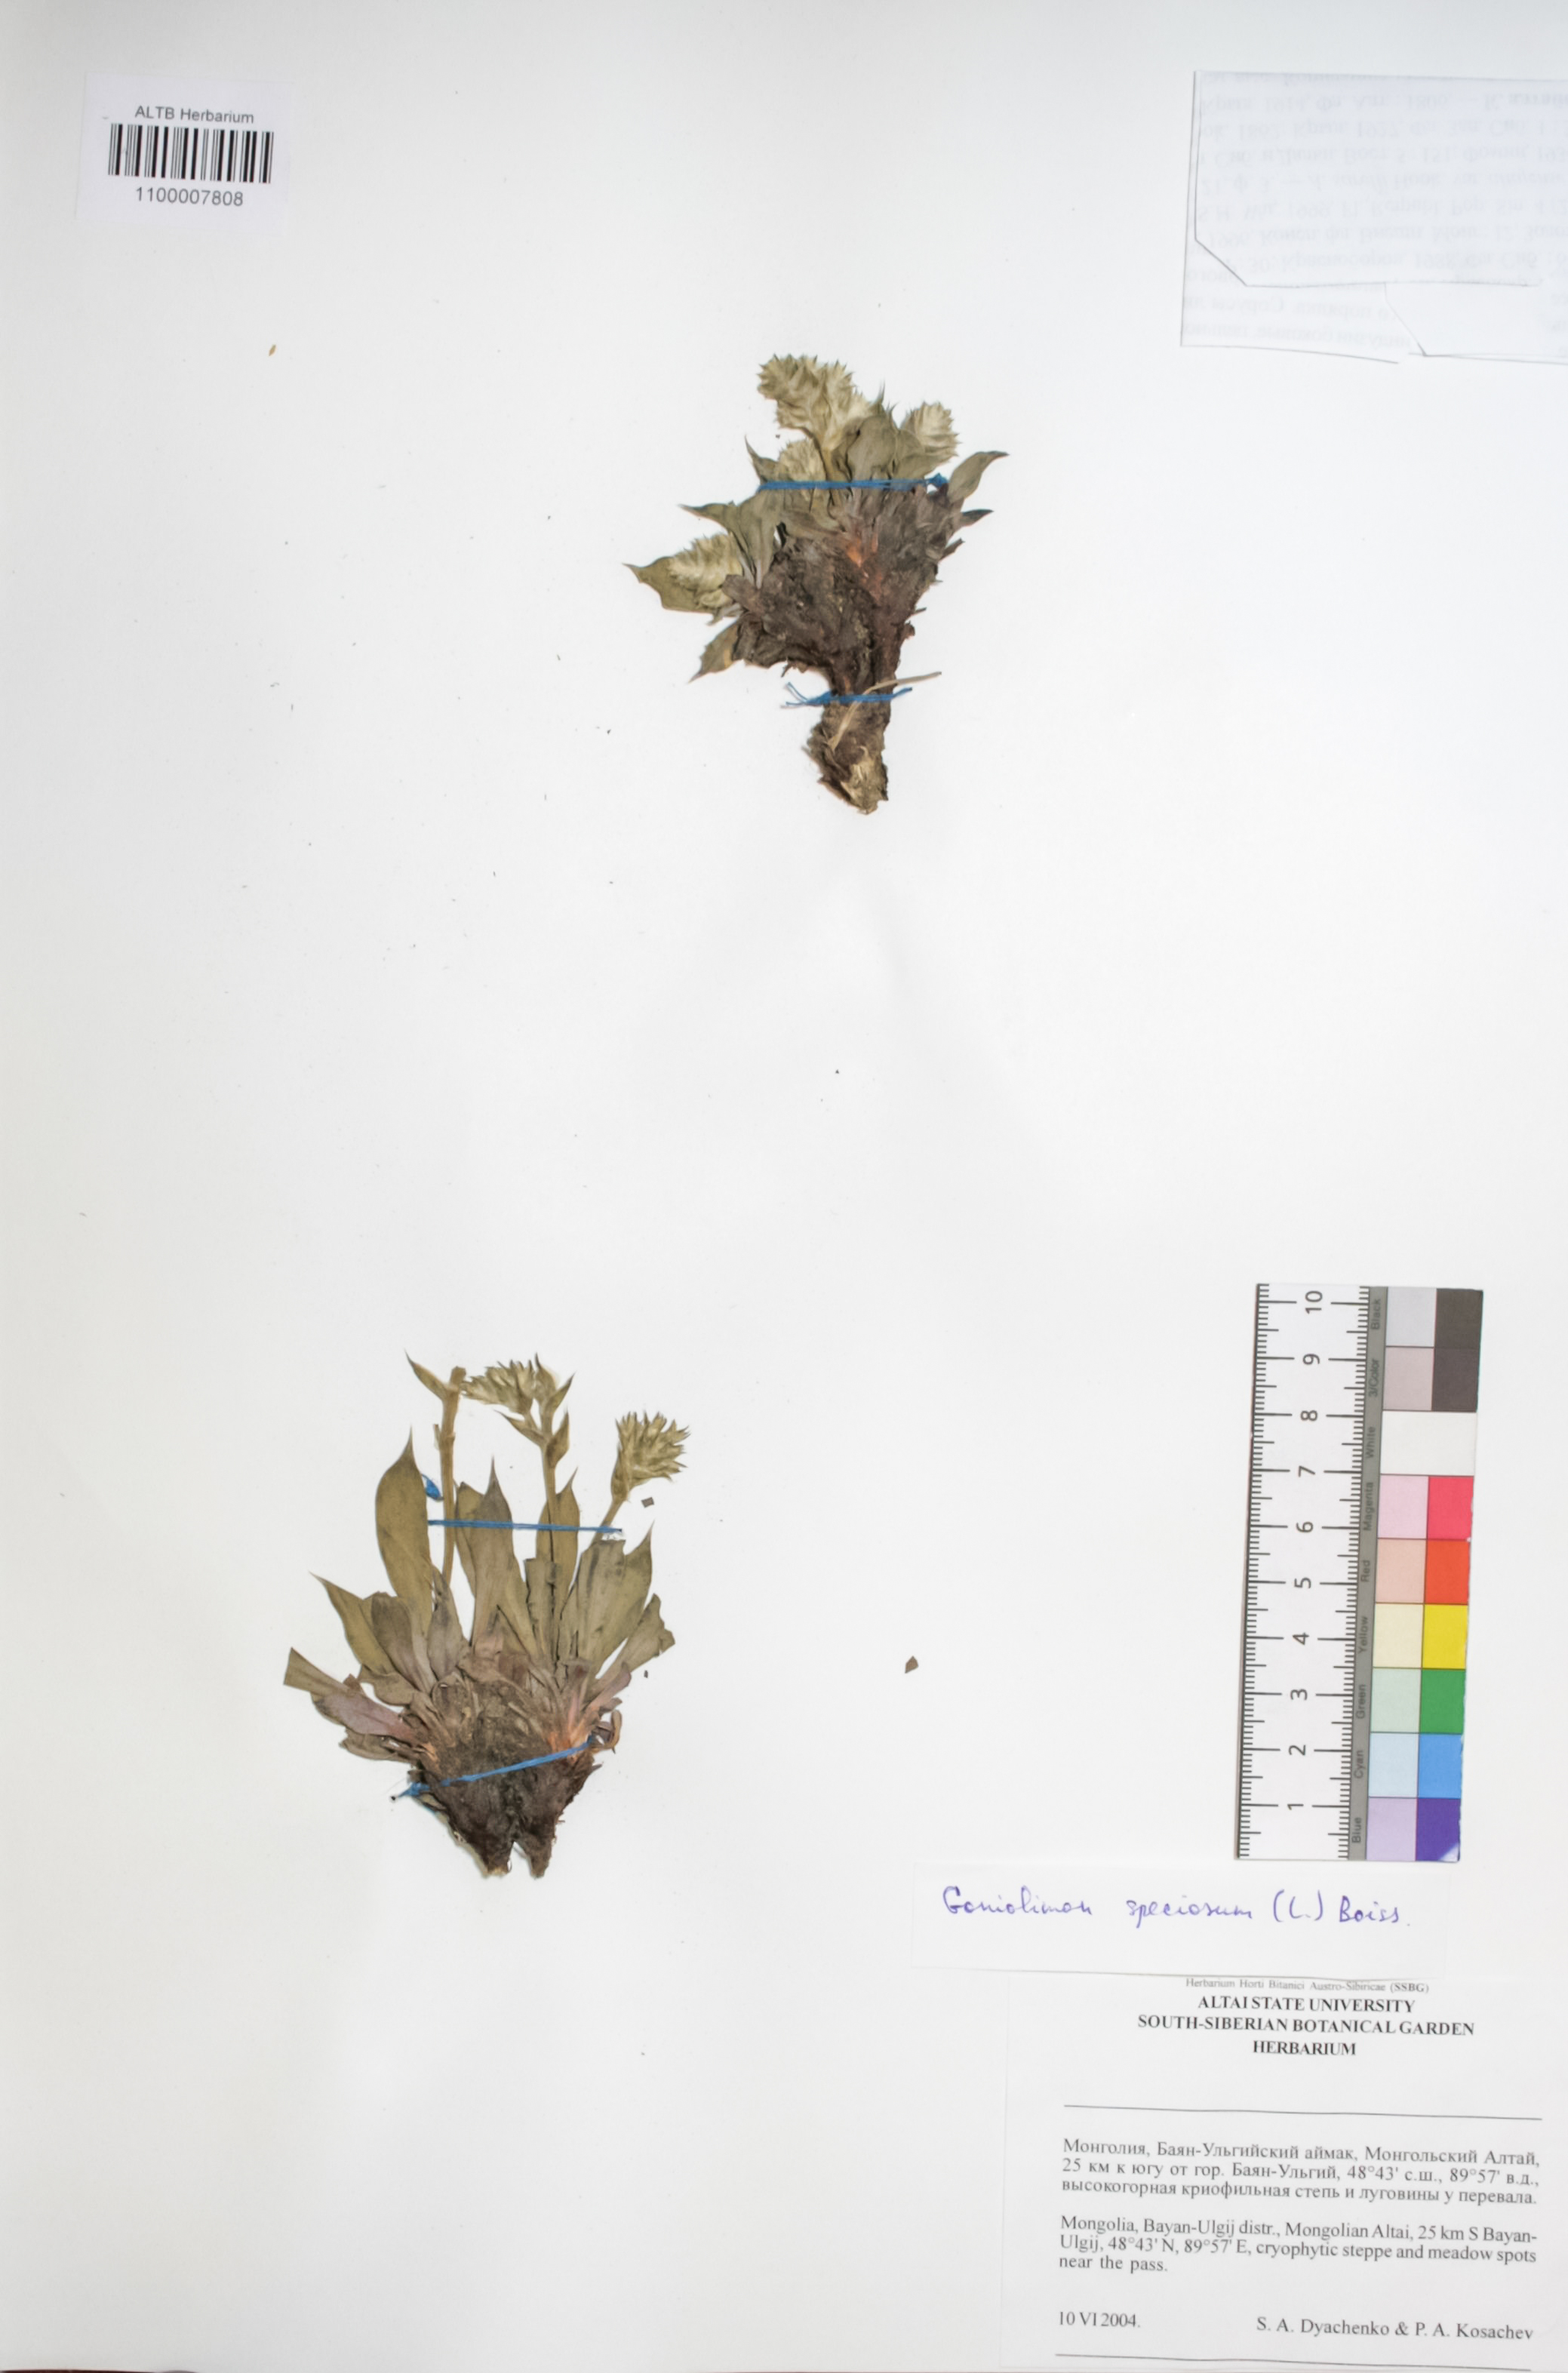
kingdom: Plantae
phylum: Tracheophyta
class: Magnoliopsida
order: Caryophyllales
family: Plumbaginaceae
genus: Goniolimon
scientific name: Goniolimon speciosum
